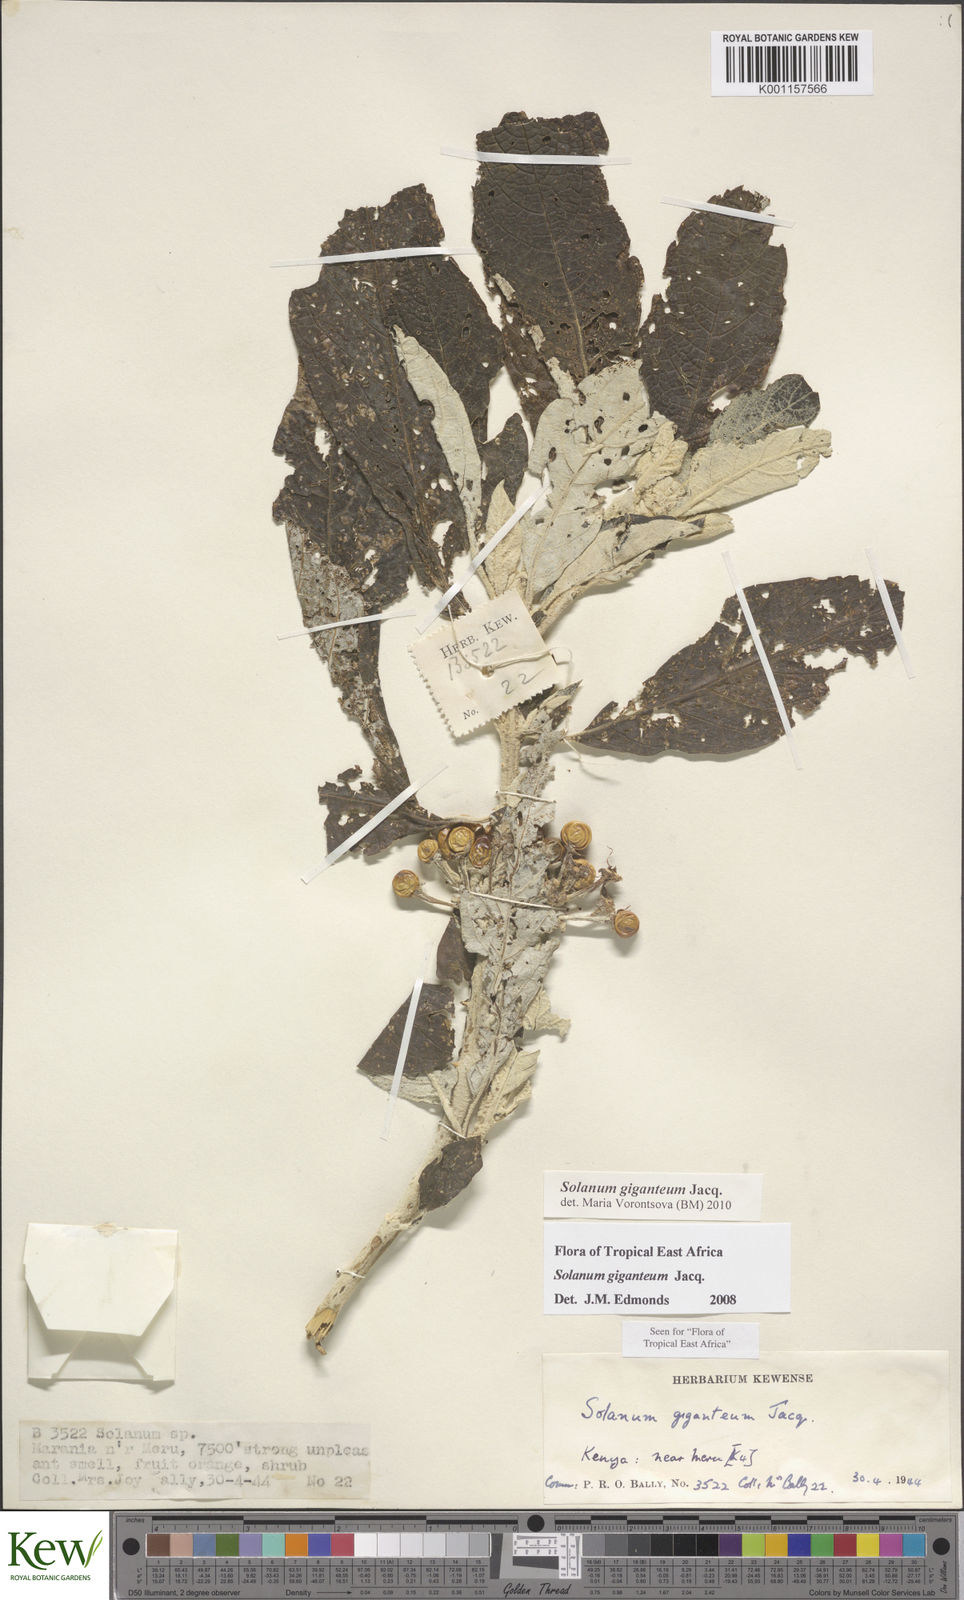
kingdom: Plantae
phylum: Tracheophyta
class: Magnoliopsida
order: Solanales
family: Solanaceae
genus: Solanum
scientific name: Solanum giganteum
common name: Healing-leaf-tree
